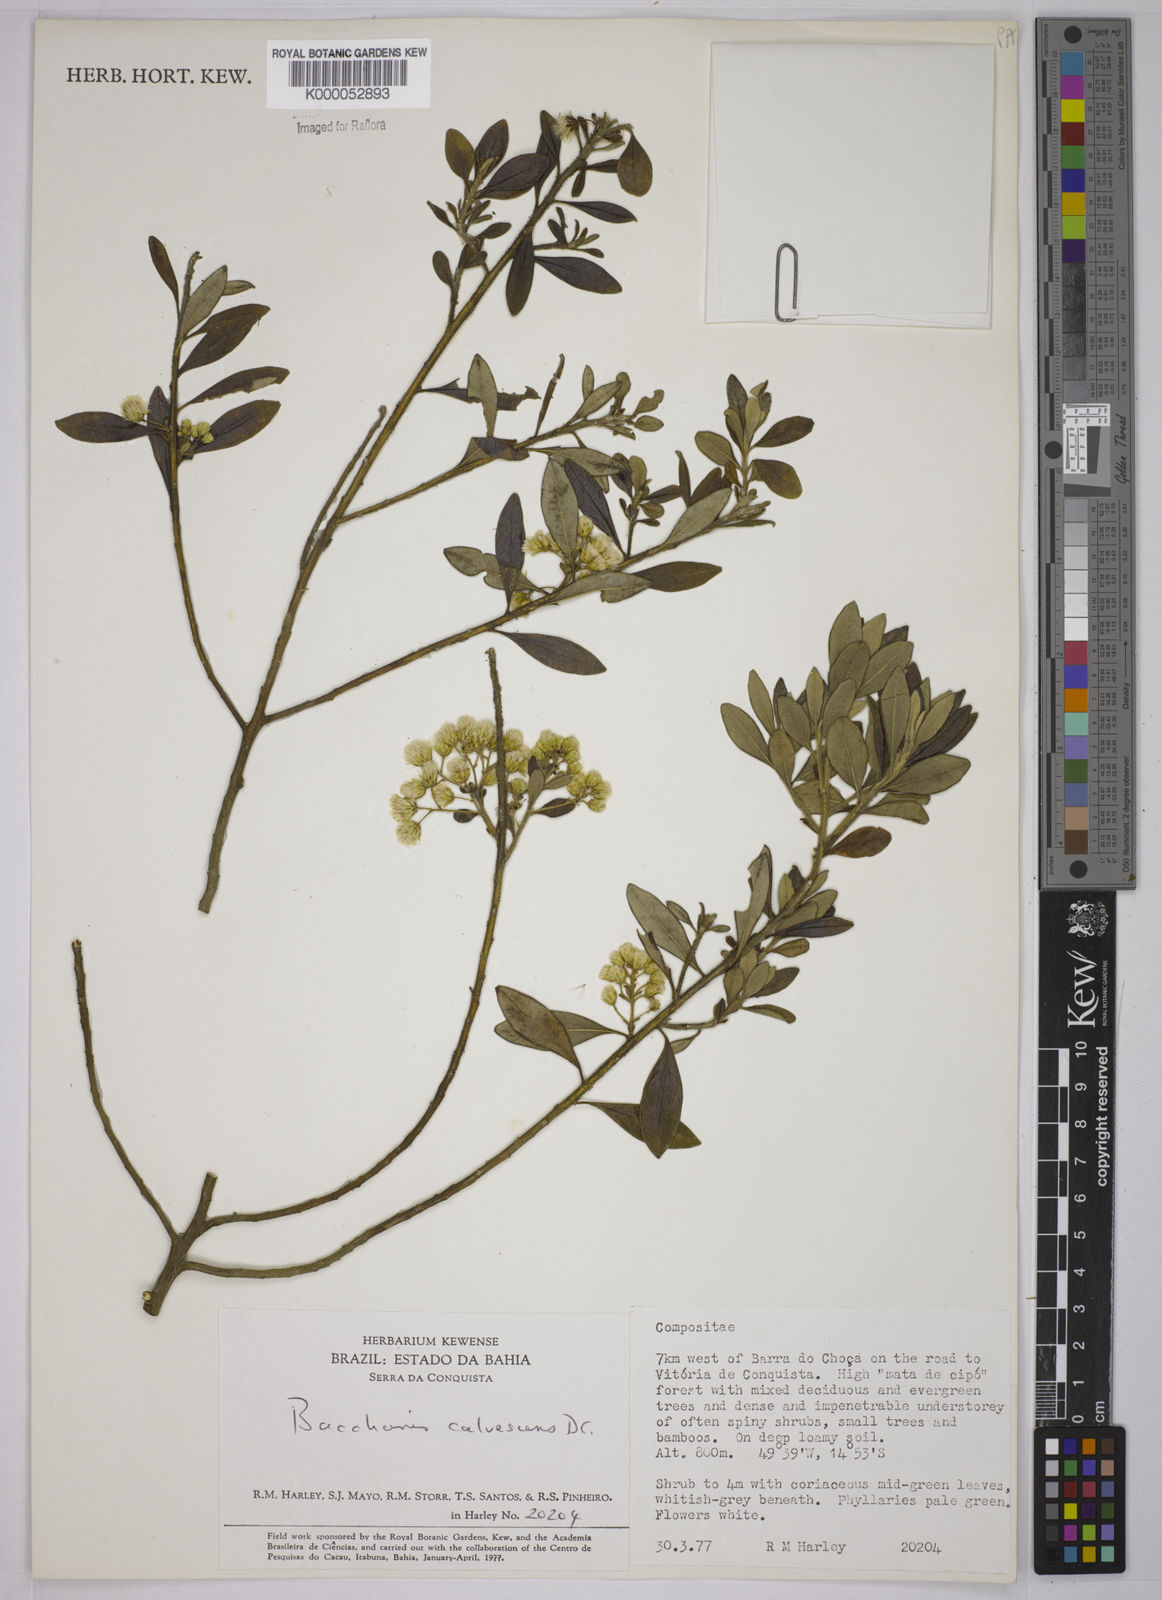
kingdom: Plantae
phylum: Tracheophyta
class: Magnoliopsida
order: Asterales
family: Asteraceae
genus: Baccharis
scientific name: Baccharis calvescens
